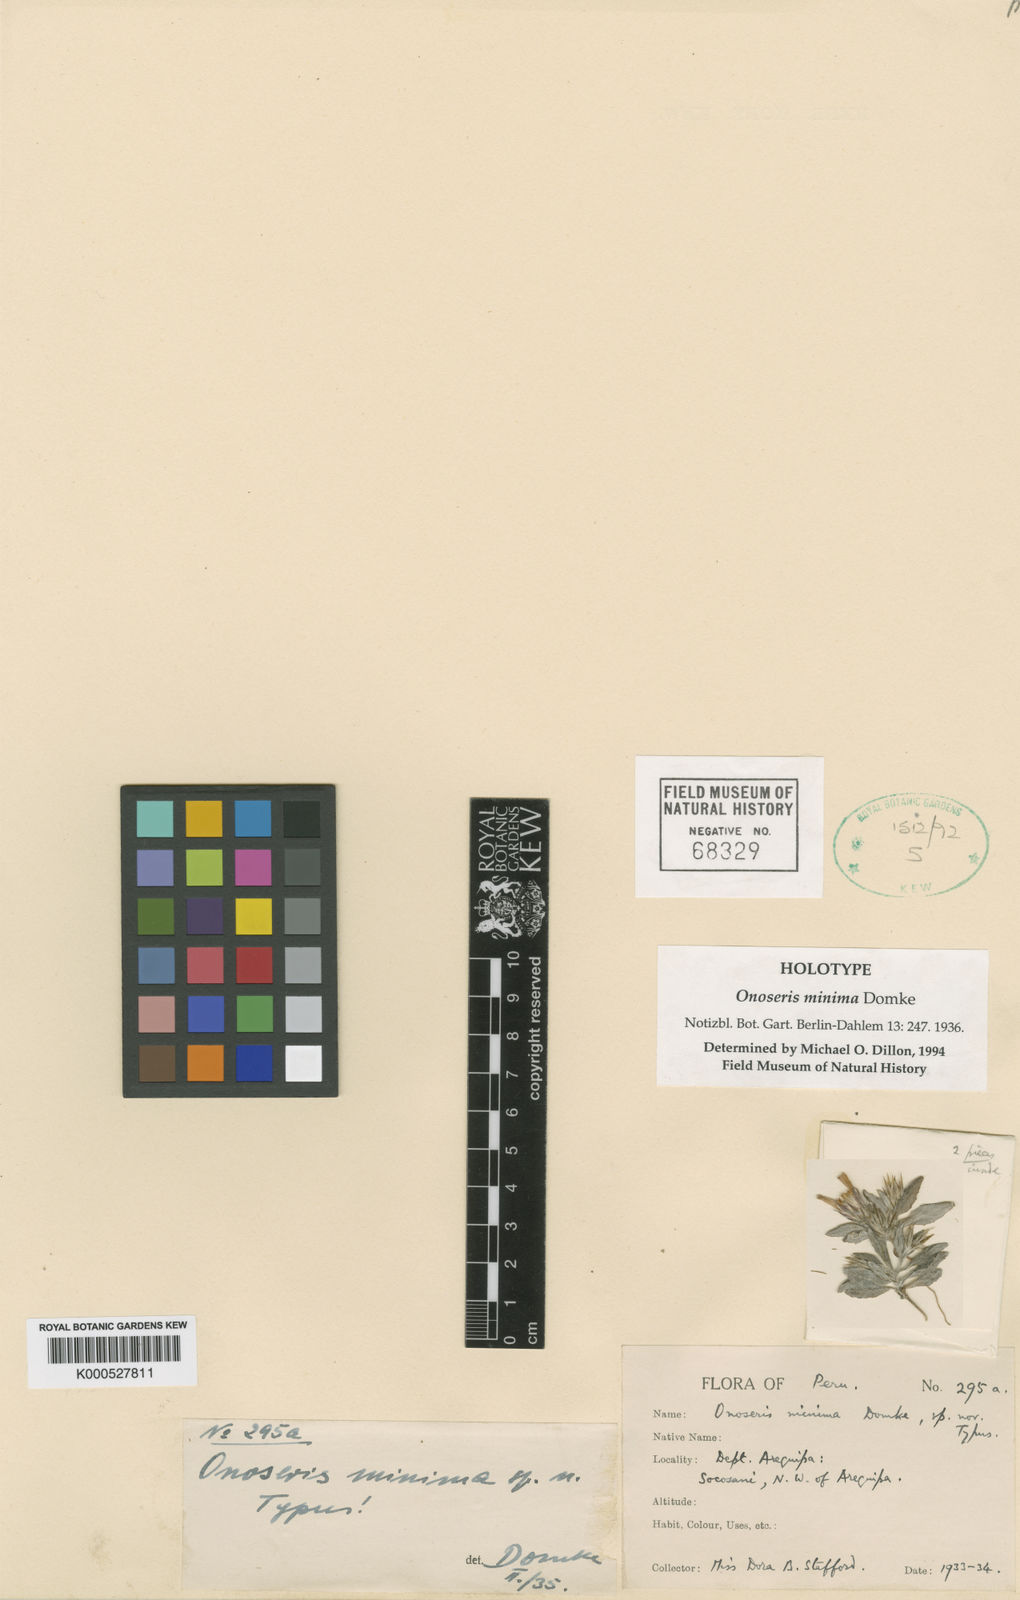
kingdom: Plantae
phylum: Tracheophyta
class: Magnoliopsida
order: Asterales
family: Asteraceae
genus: Onoseris
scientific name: Onoseris minima
